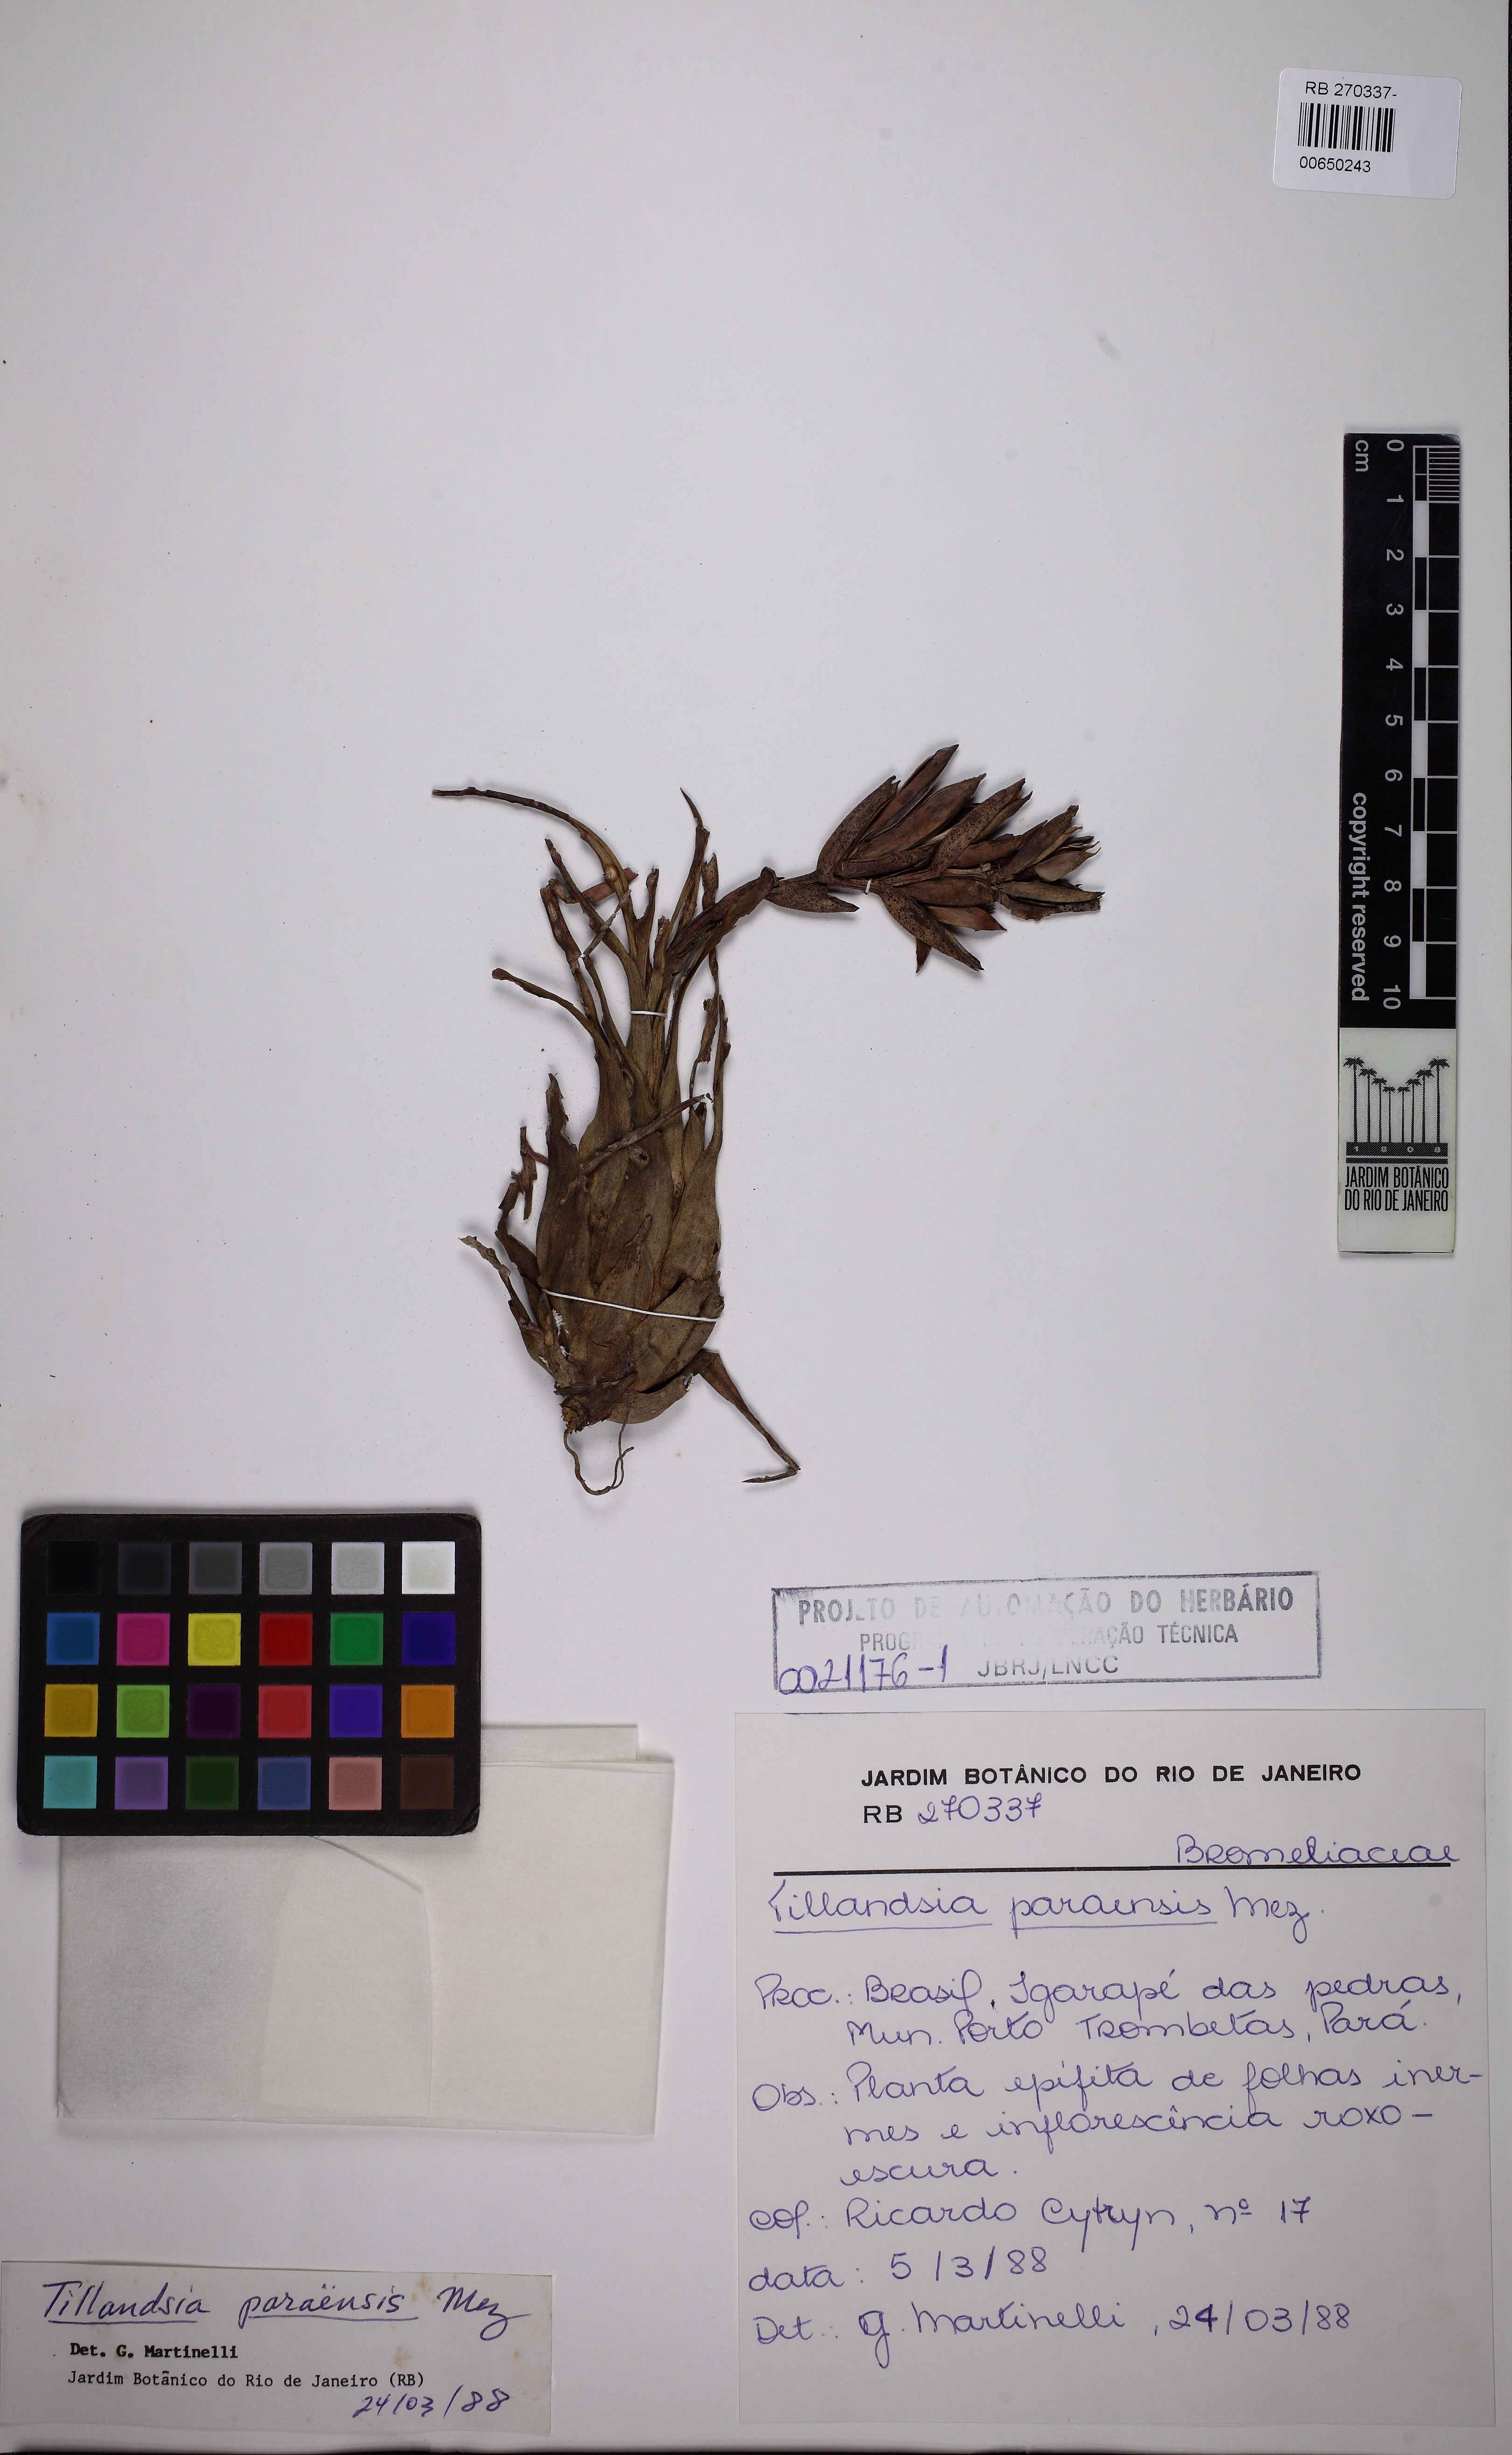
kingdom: Plantae
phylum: Tracheophyta
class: Liliopsida
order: Poales
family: Bromeliaceae
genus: Tillandsia
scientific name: Tillandsia paraensis
